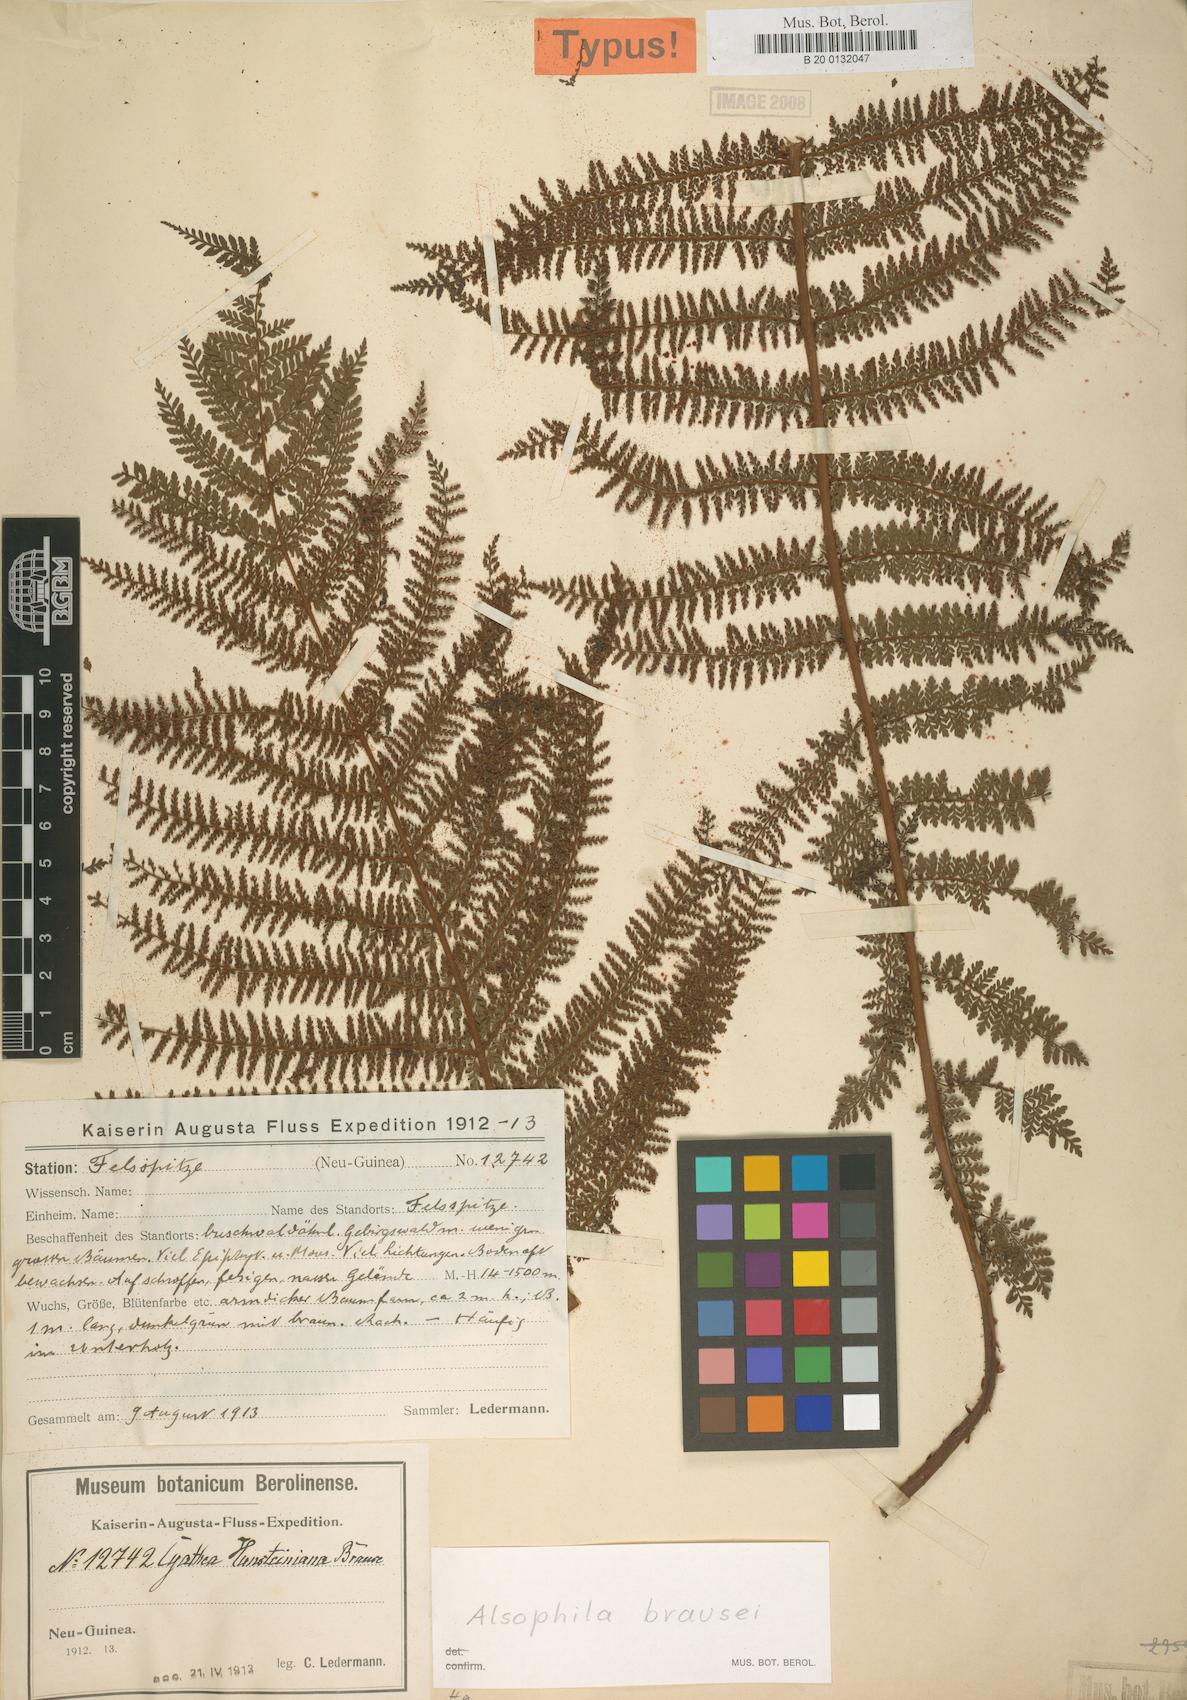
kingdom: Plantae
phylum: Tracheophyta
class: Polypodiopsida
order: Cyatheales
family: Cyatheaceae
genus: Alsophila
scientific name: Alsophila rubiginosa
